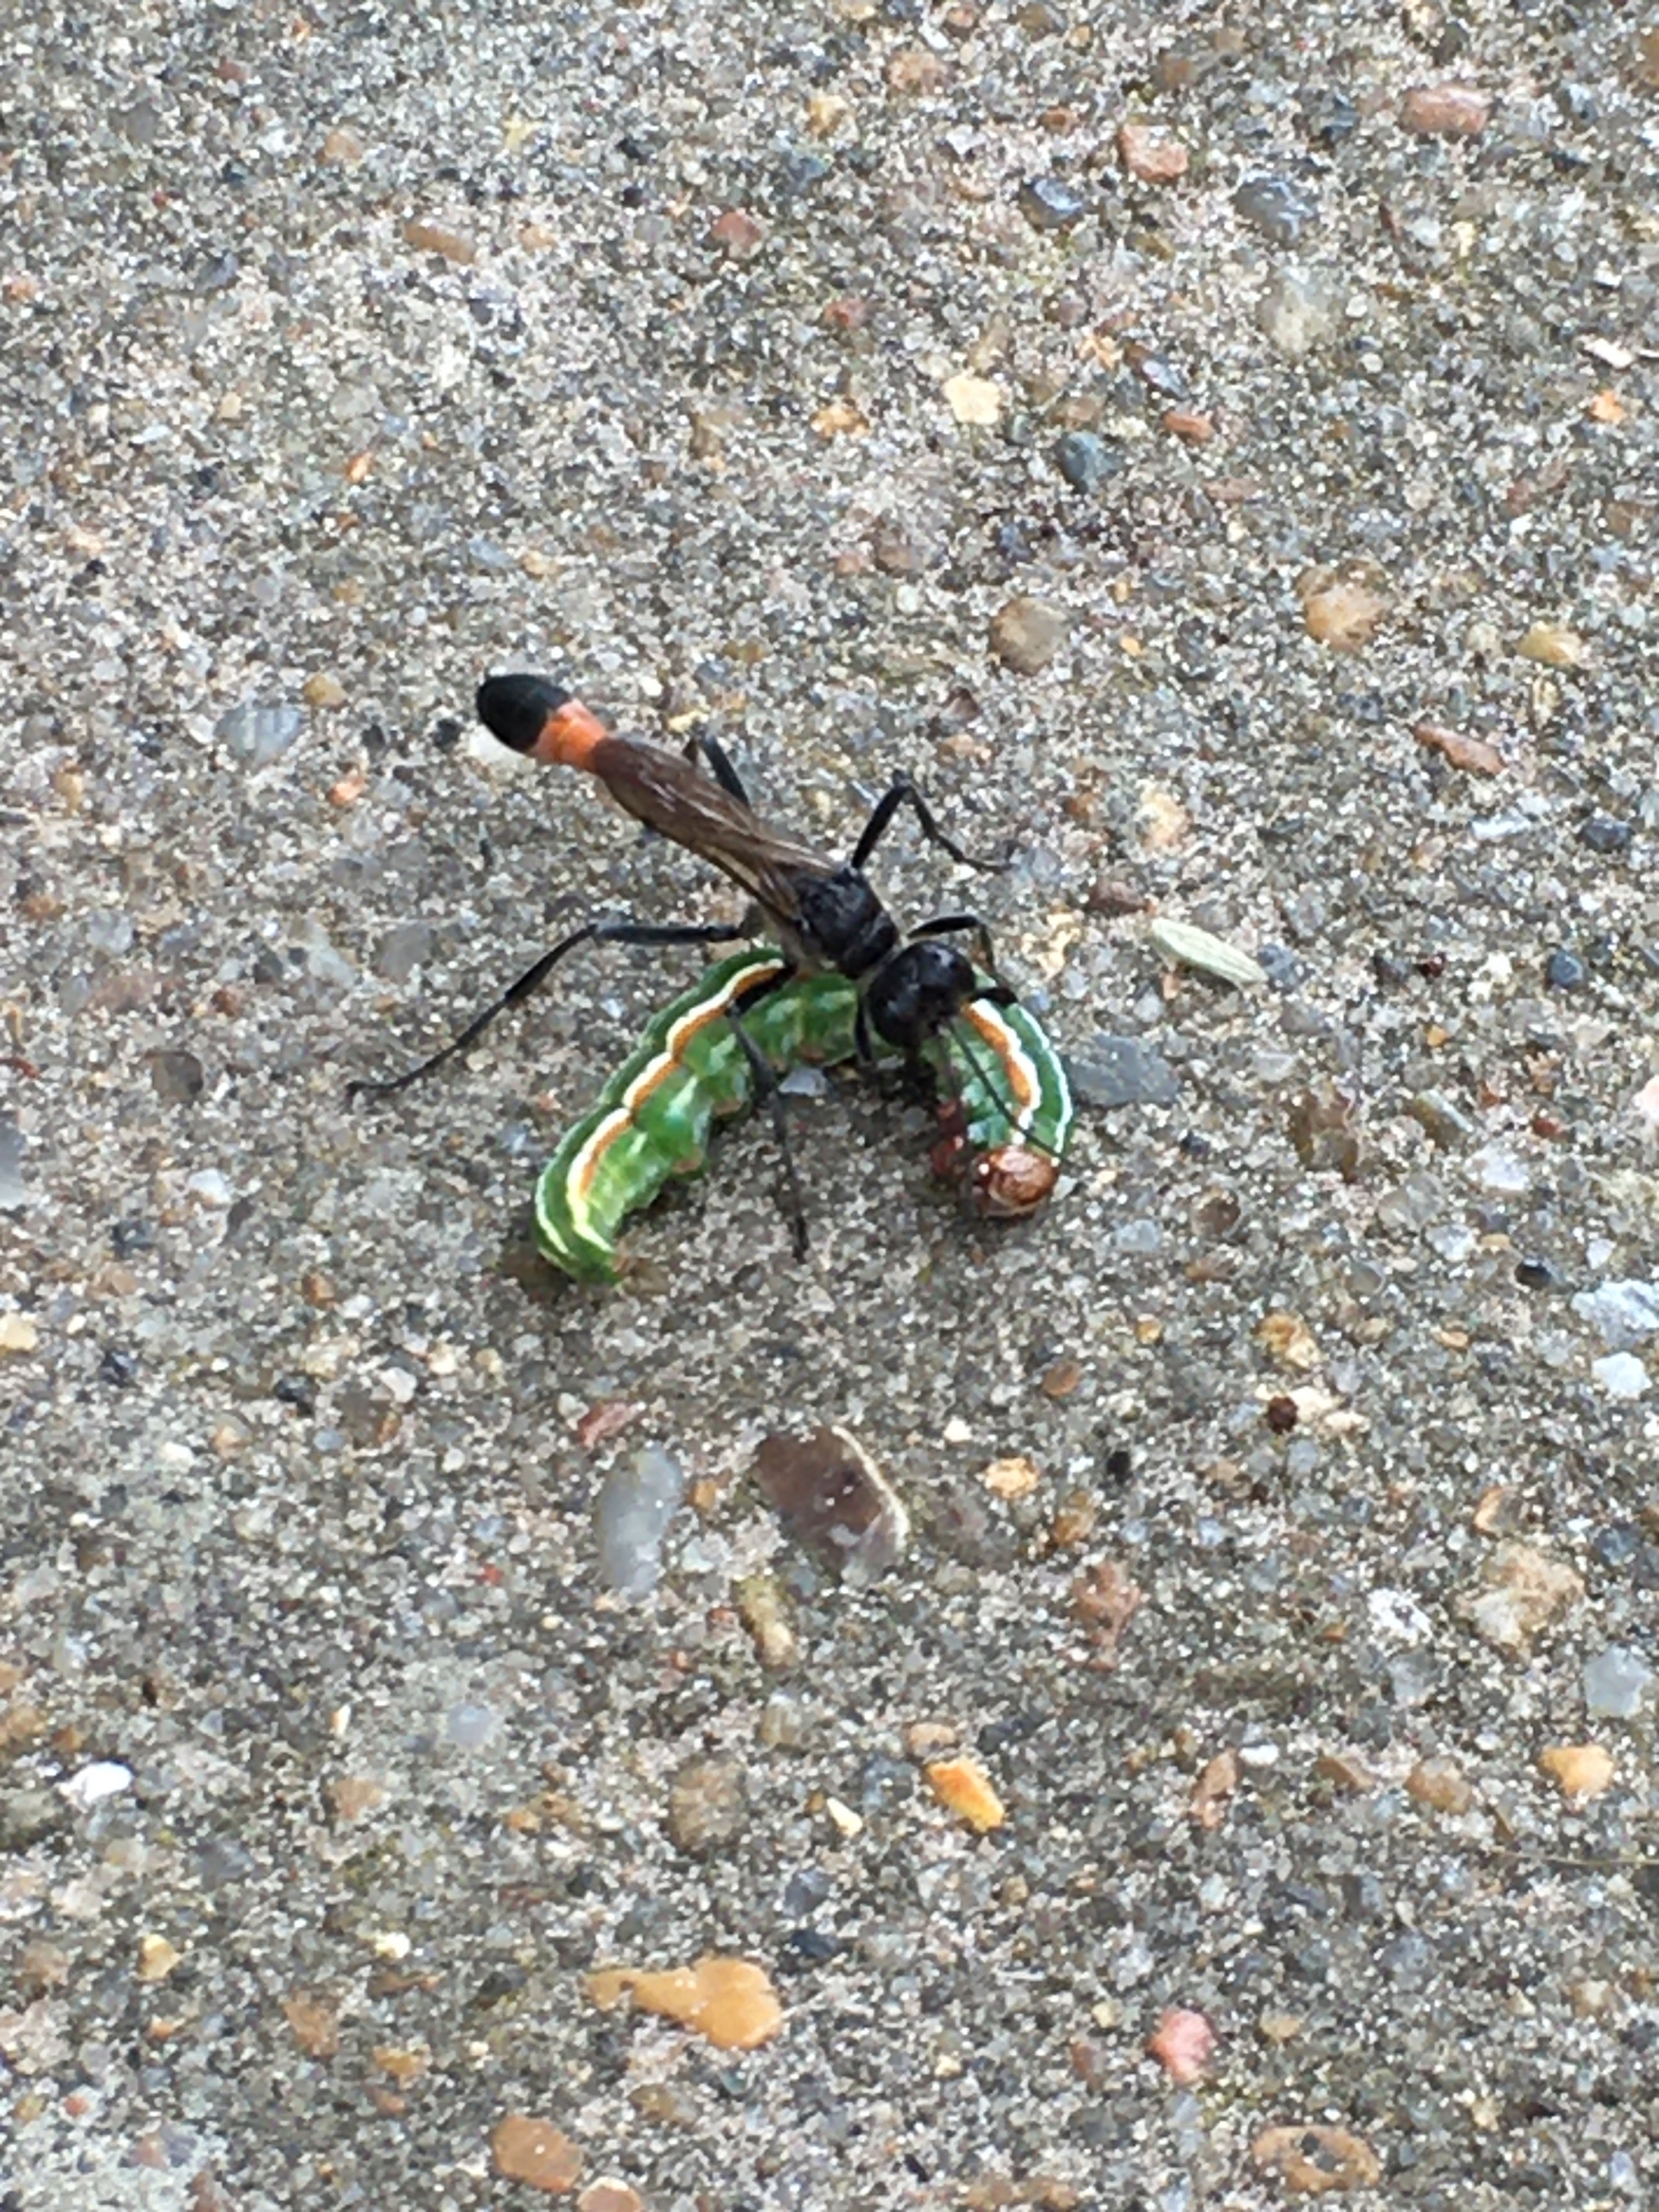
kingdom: Animalia
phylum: Arthropoda
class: Insecta
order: Lepidoptera
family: Noctuidae
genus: Panolis
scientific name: Panolis flammea
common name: Fyrreugle
